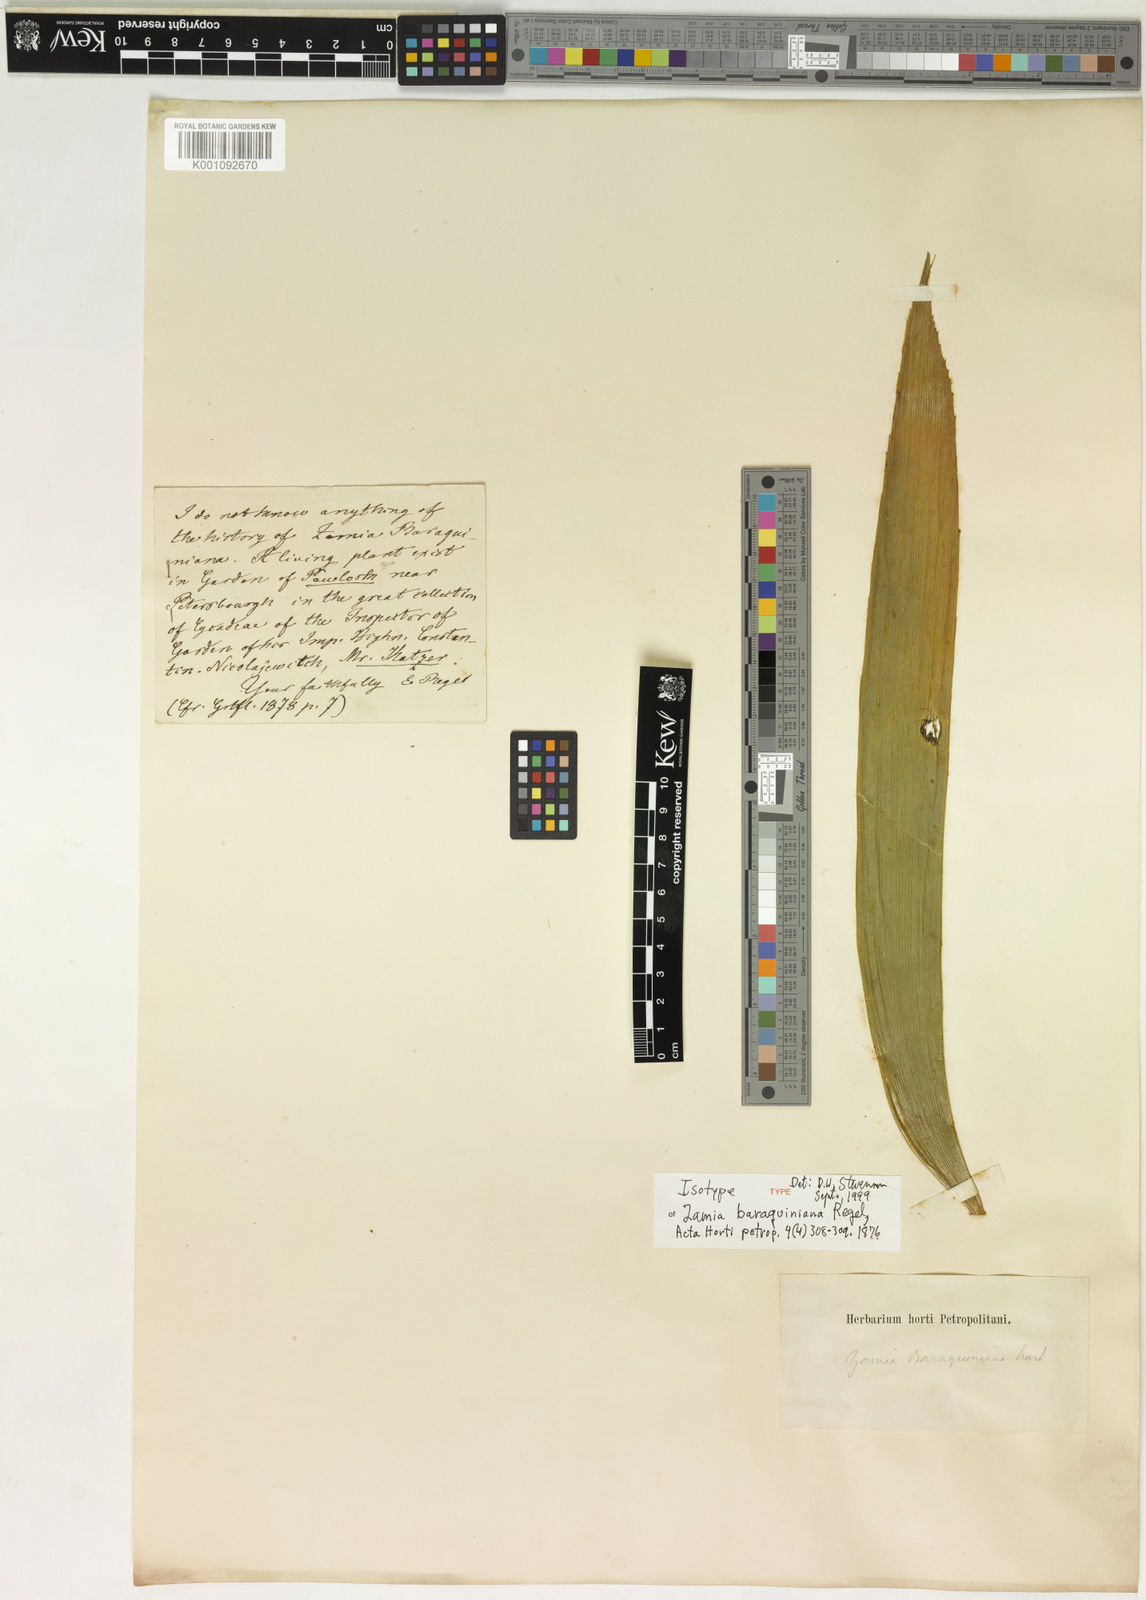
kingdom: Plantae
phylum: Tracheophyta
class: Cycadopsida
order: Cycadales
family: Zamiaceae
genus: Zamia
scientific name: Zamia obliqua
